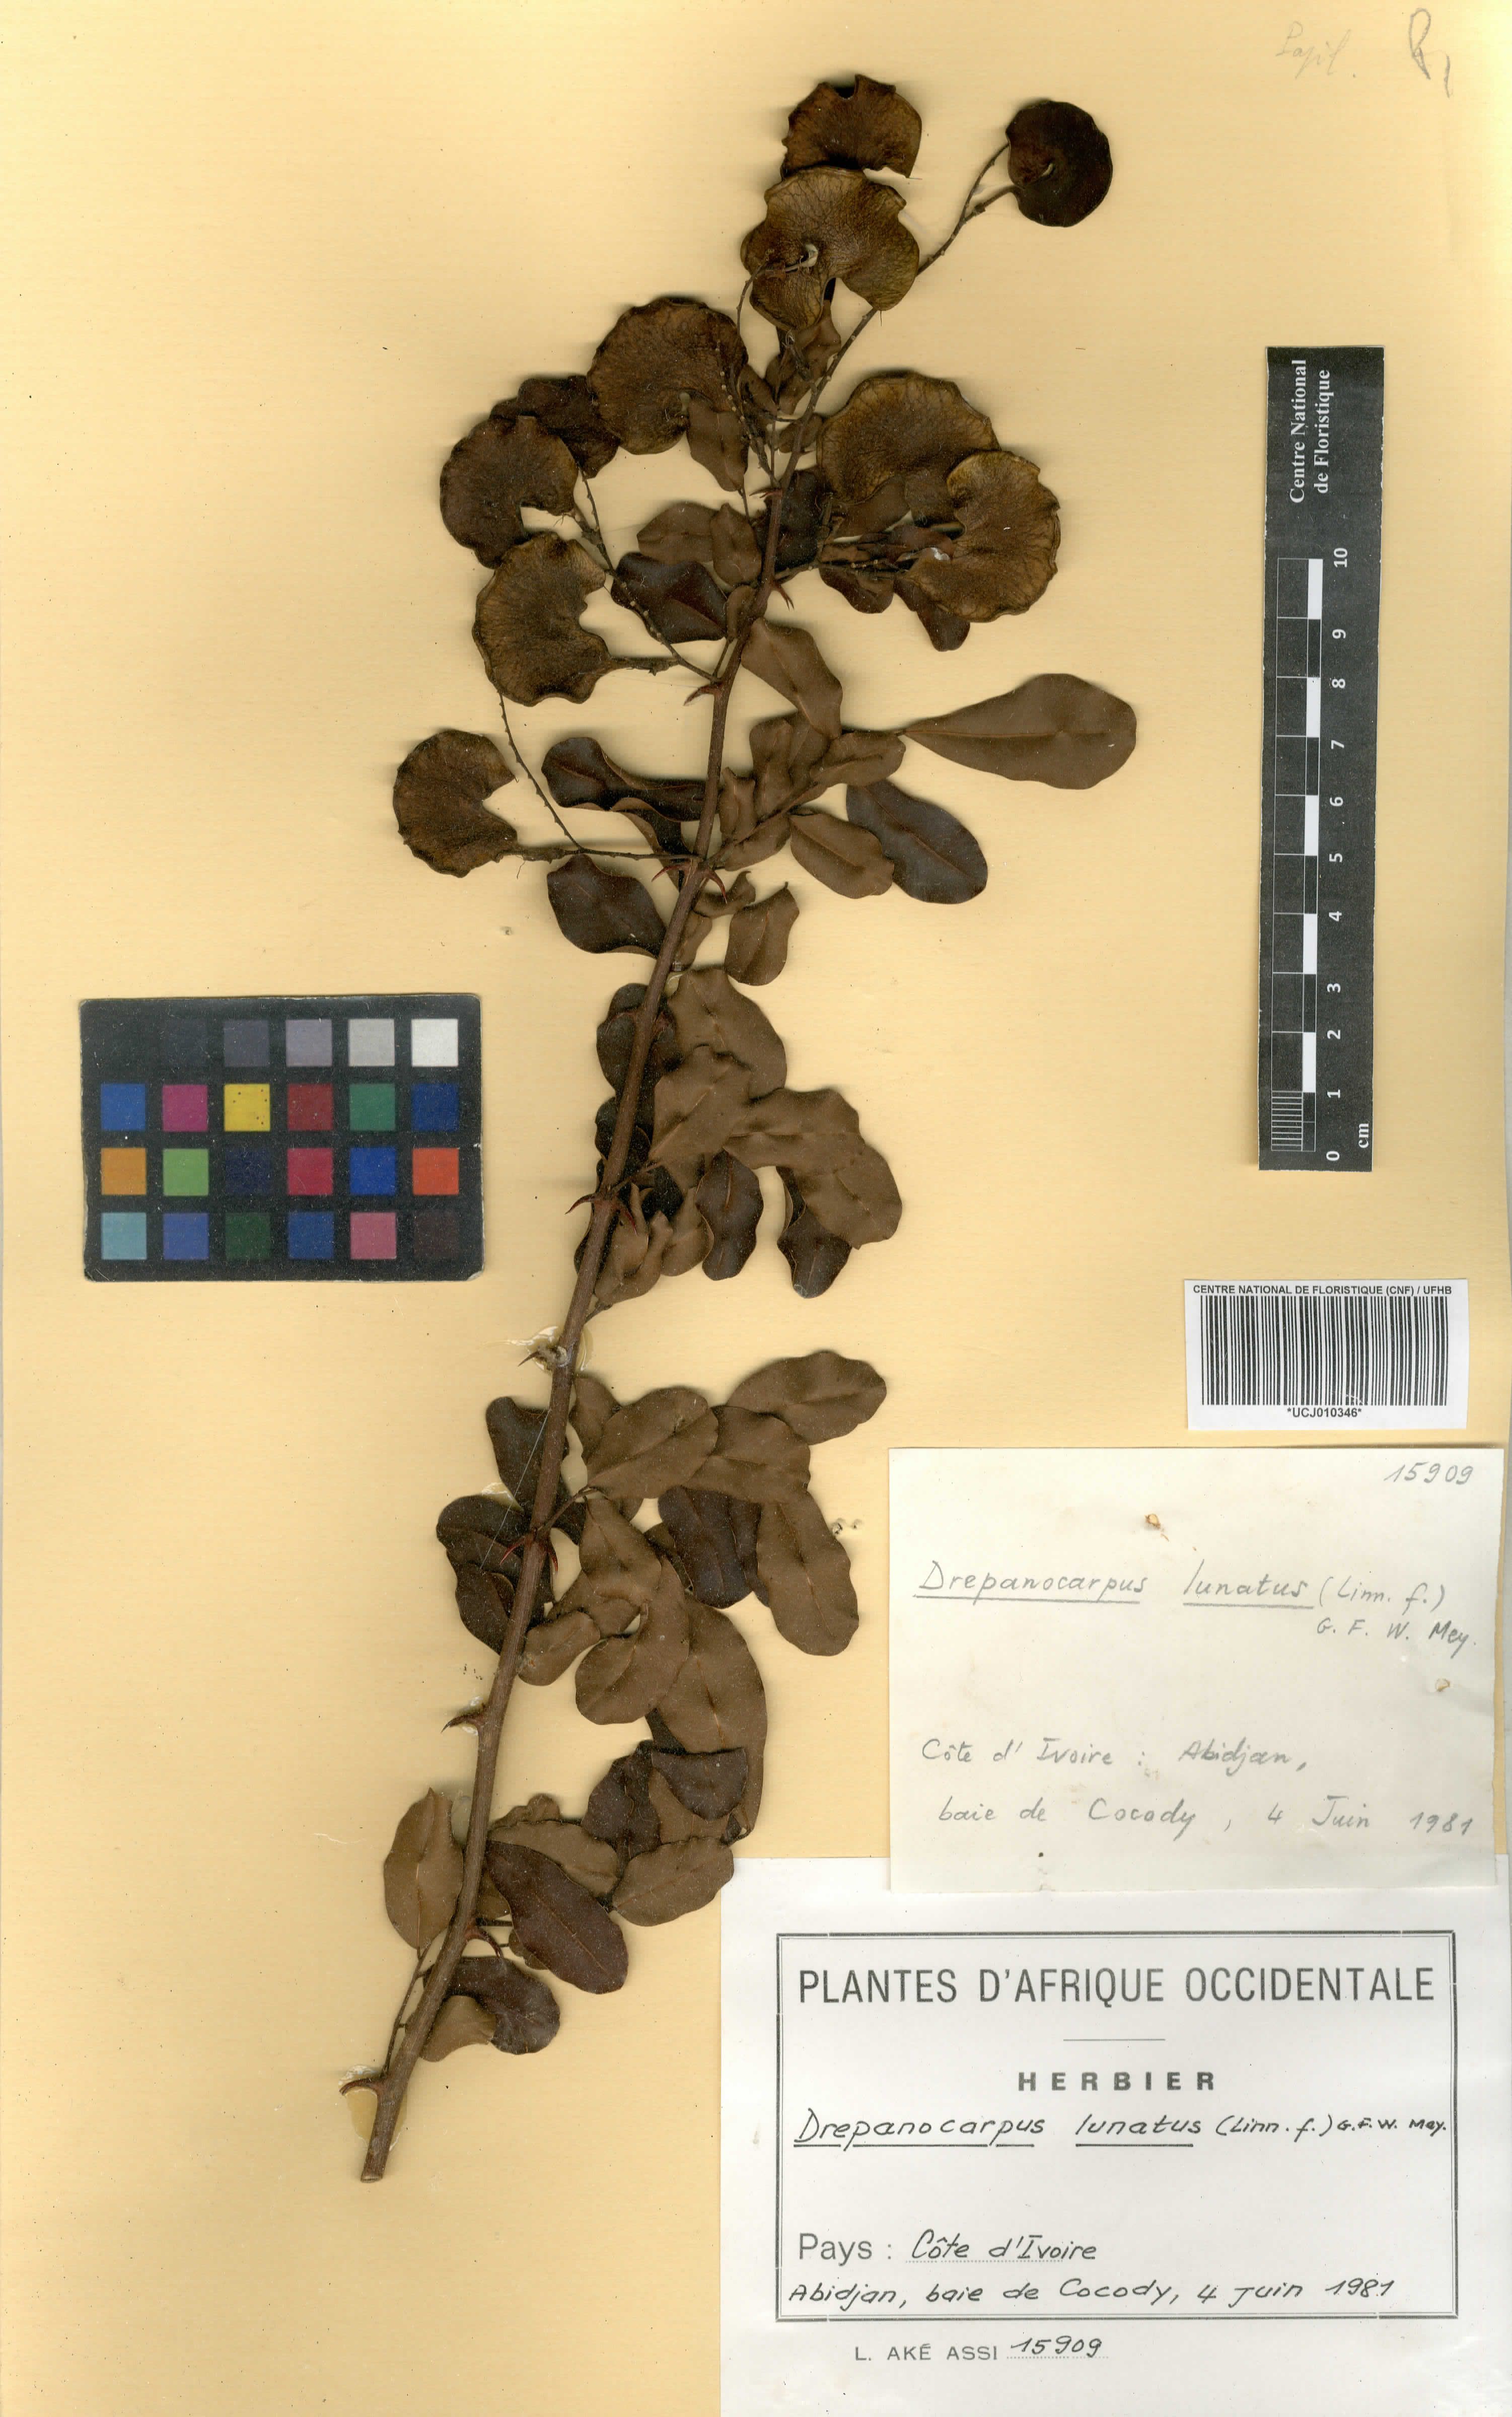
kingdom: Plantae
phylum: Tracheophyta
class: Magnoliopsida
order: Fabales
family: Fabaceae
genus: Machaerium
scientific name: Machaerium lunatum
